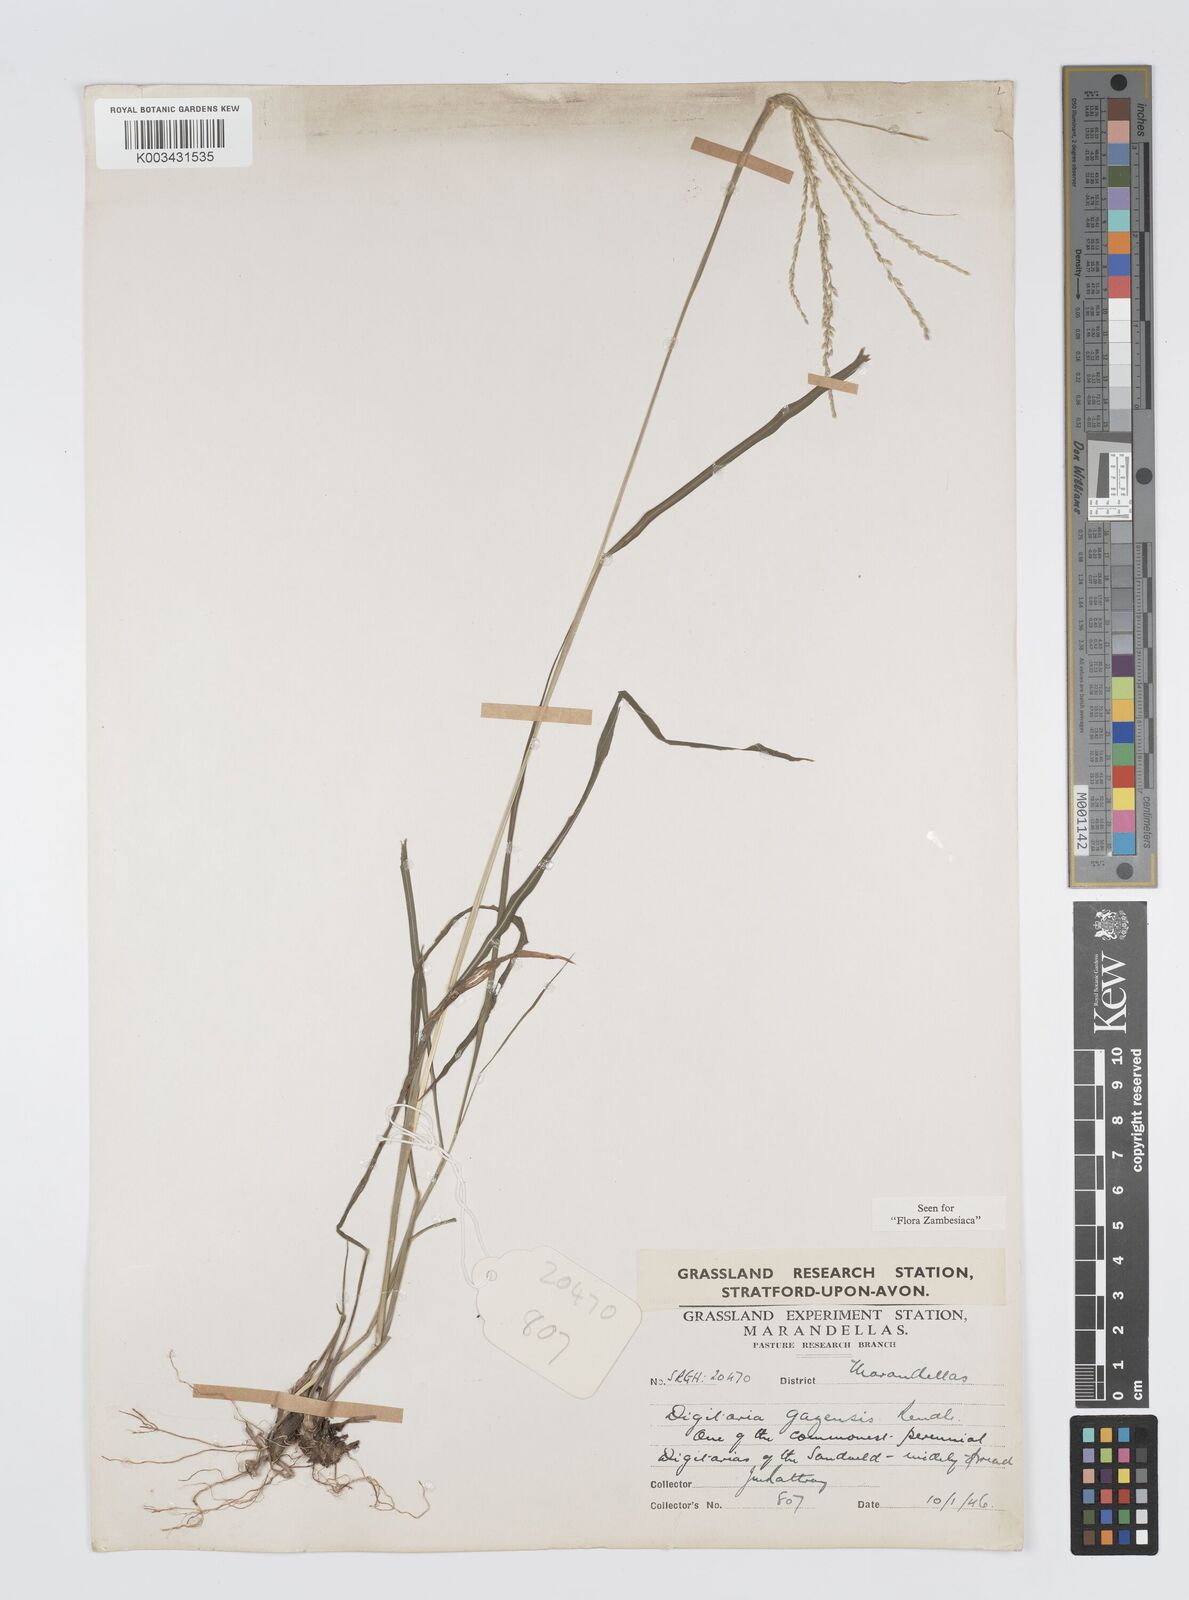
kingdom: Plantae
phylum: Tracheophyta
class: Liliopsida
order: Poales
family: Poaceae
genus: Digitaria
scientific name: Digitaria gazensis
